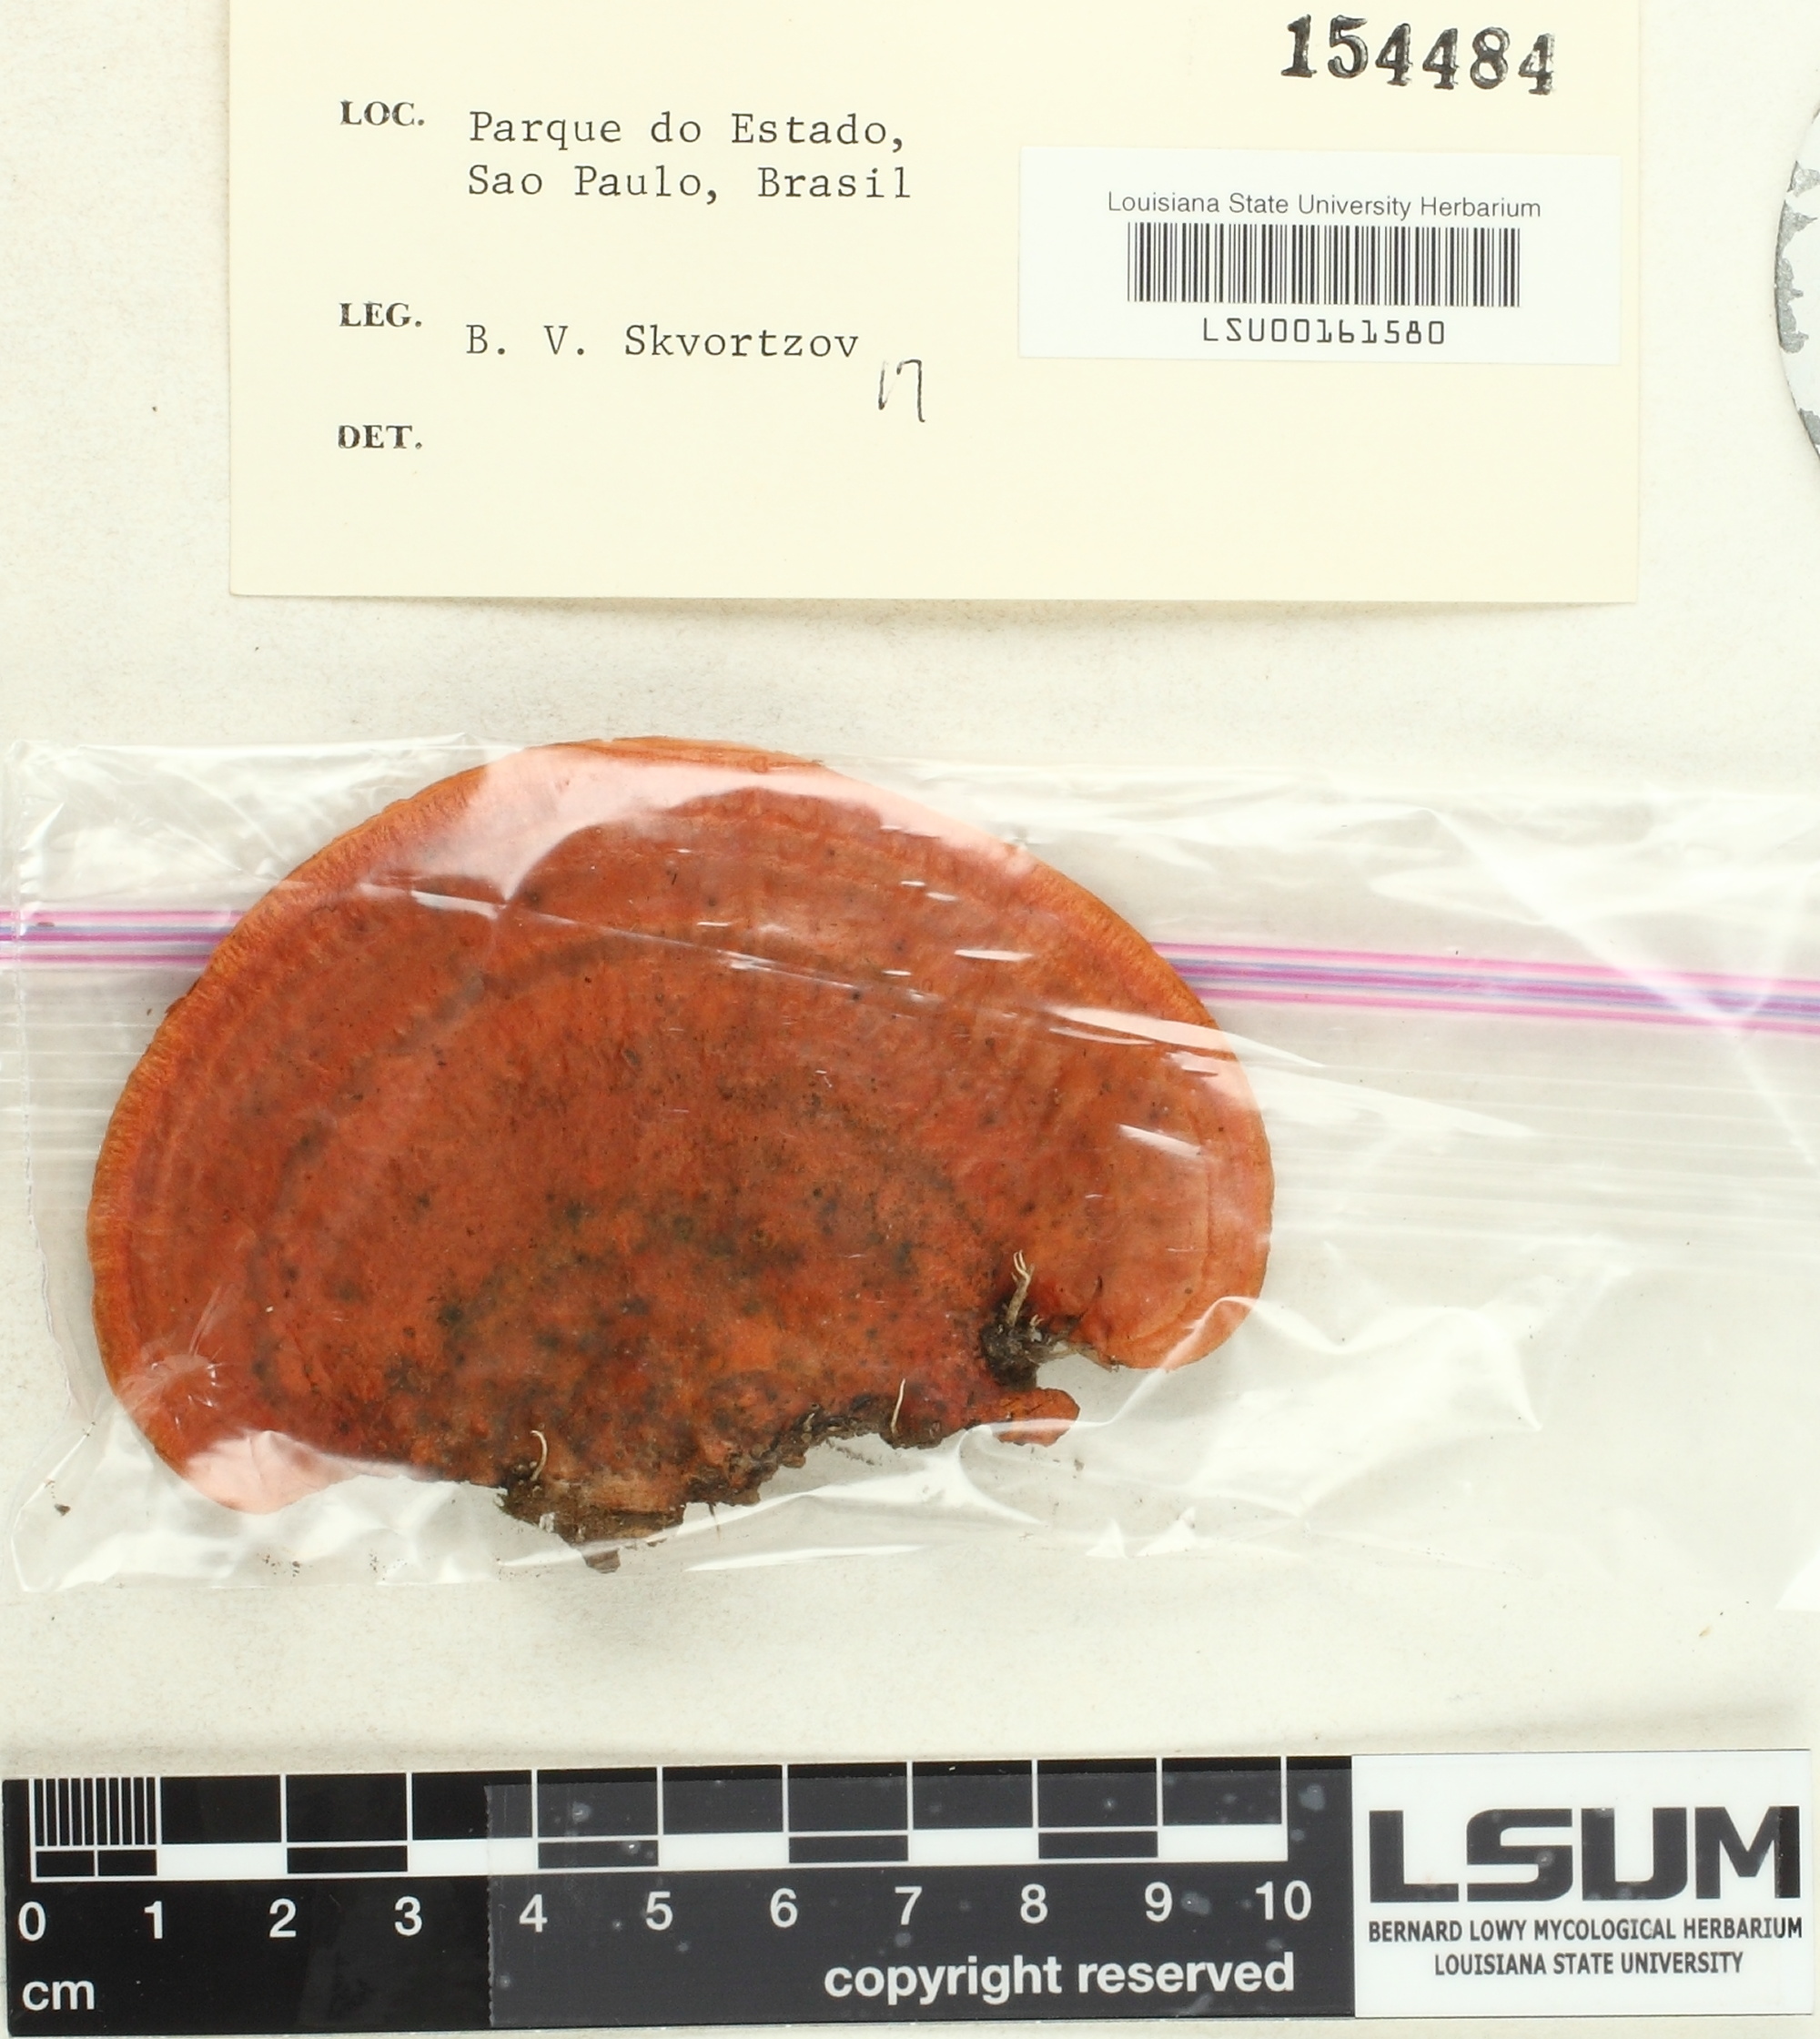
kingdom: Fungi
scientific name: Fungi
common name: Fungi
